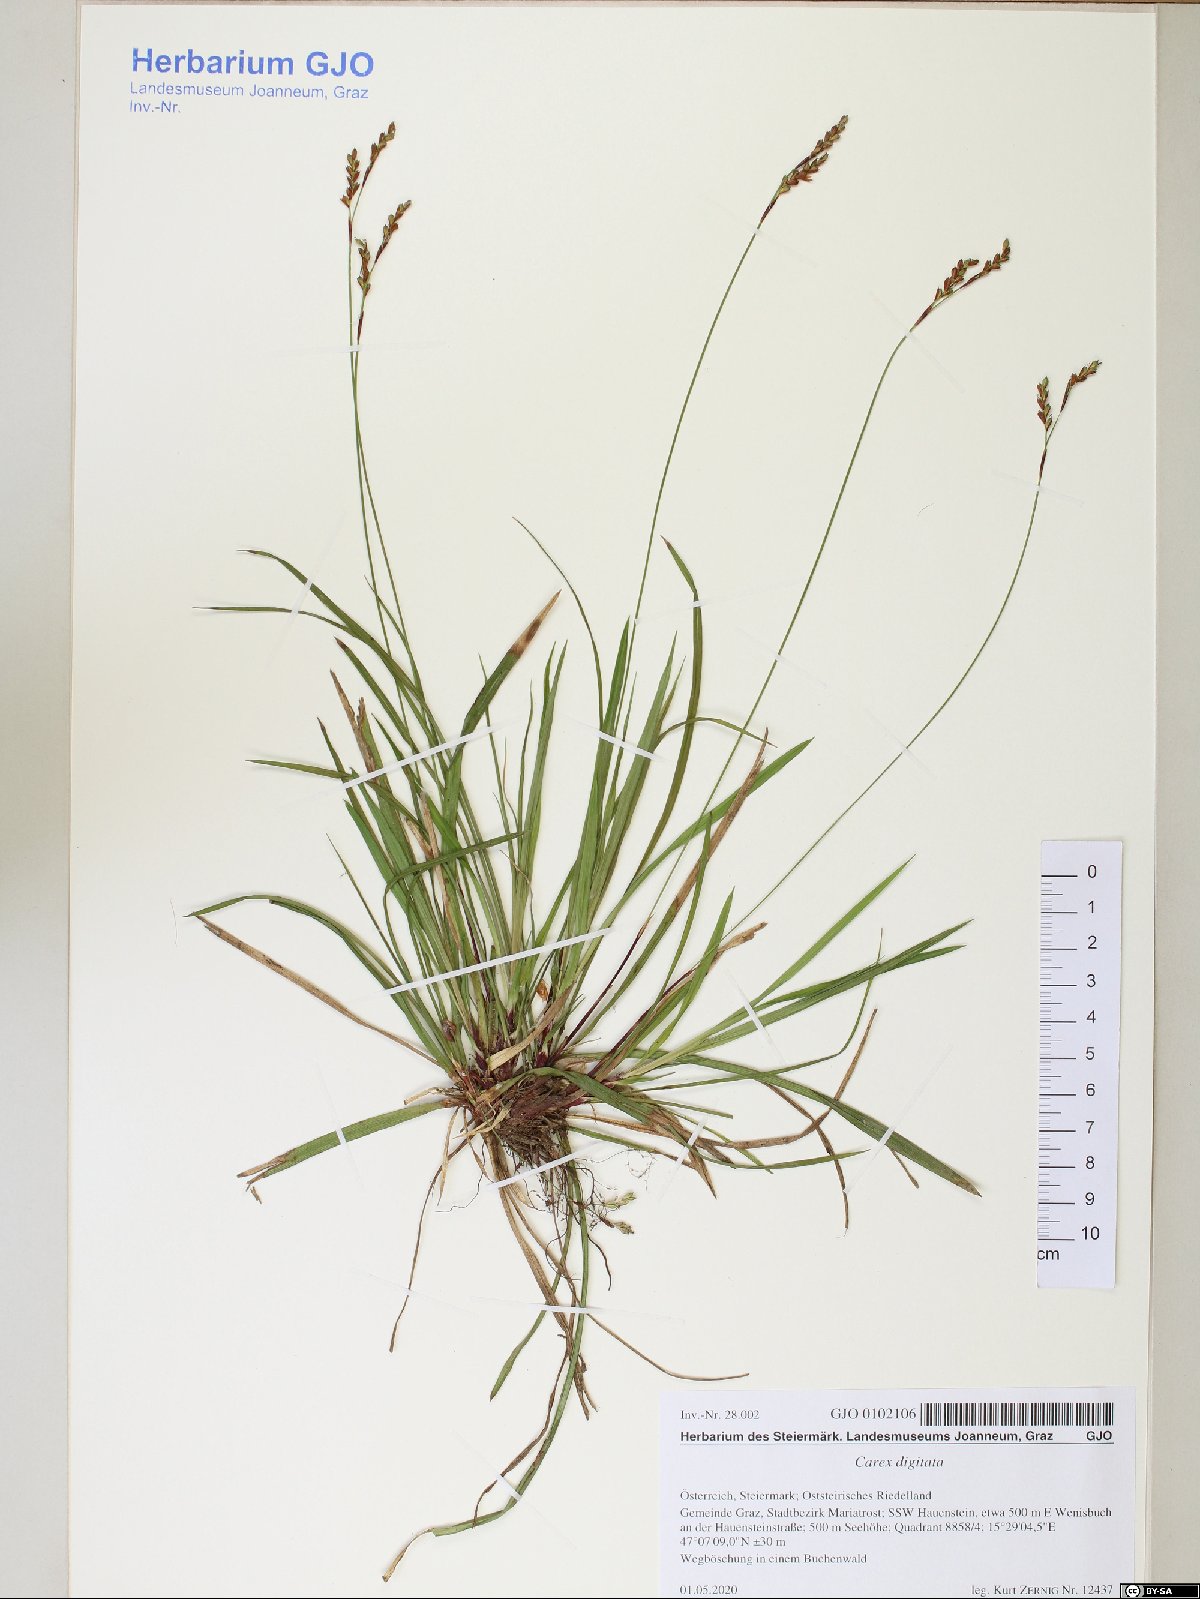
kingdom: Plantae
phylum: Tracheophyta
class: Liliopsida
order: Poales
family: Cyperaceae
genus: Carex
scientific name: Carex digitata
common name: Fingered sedge
